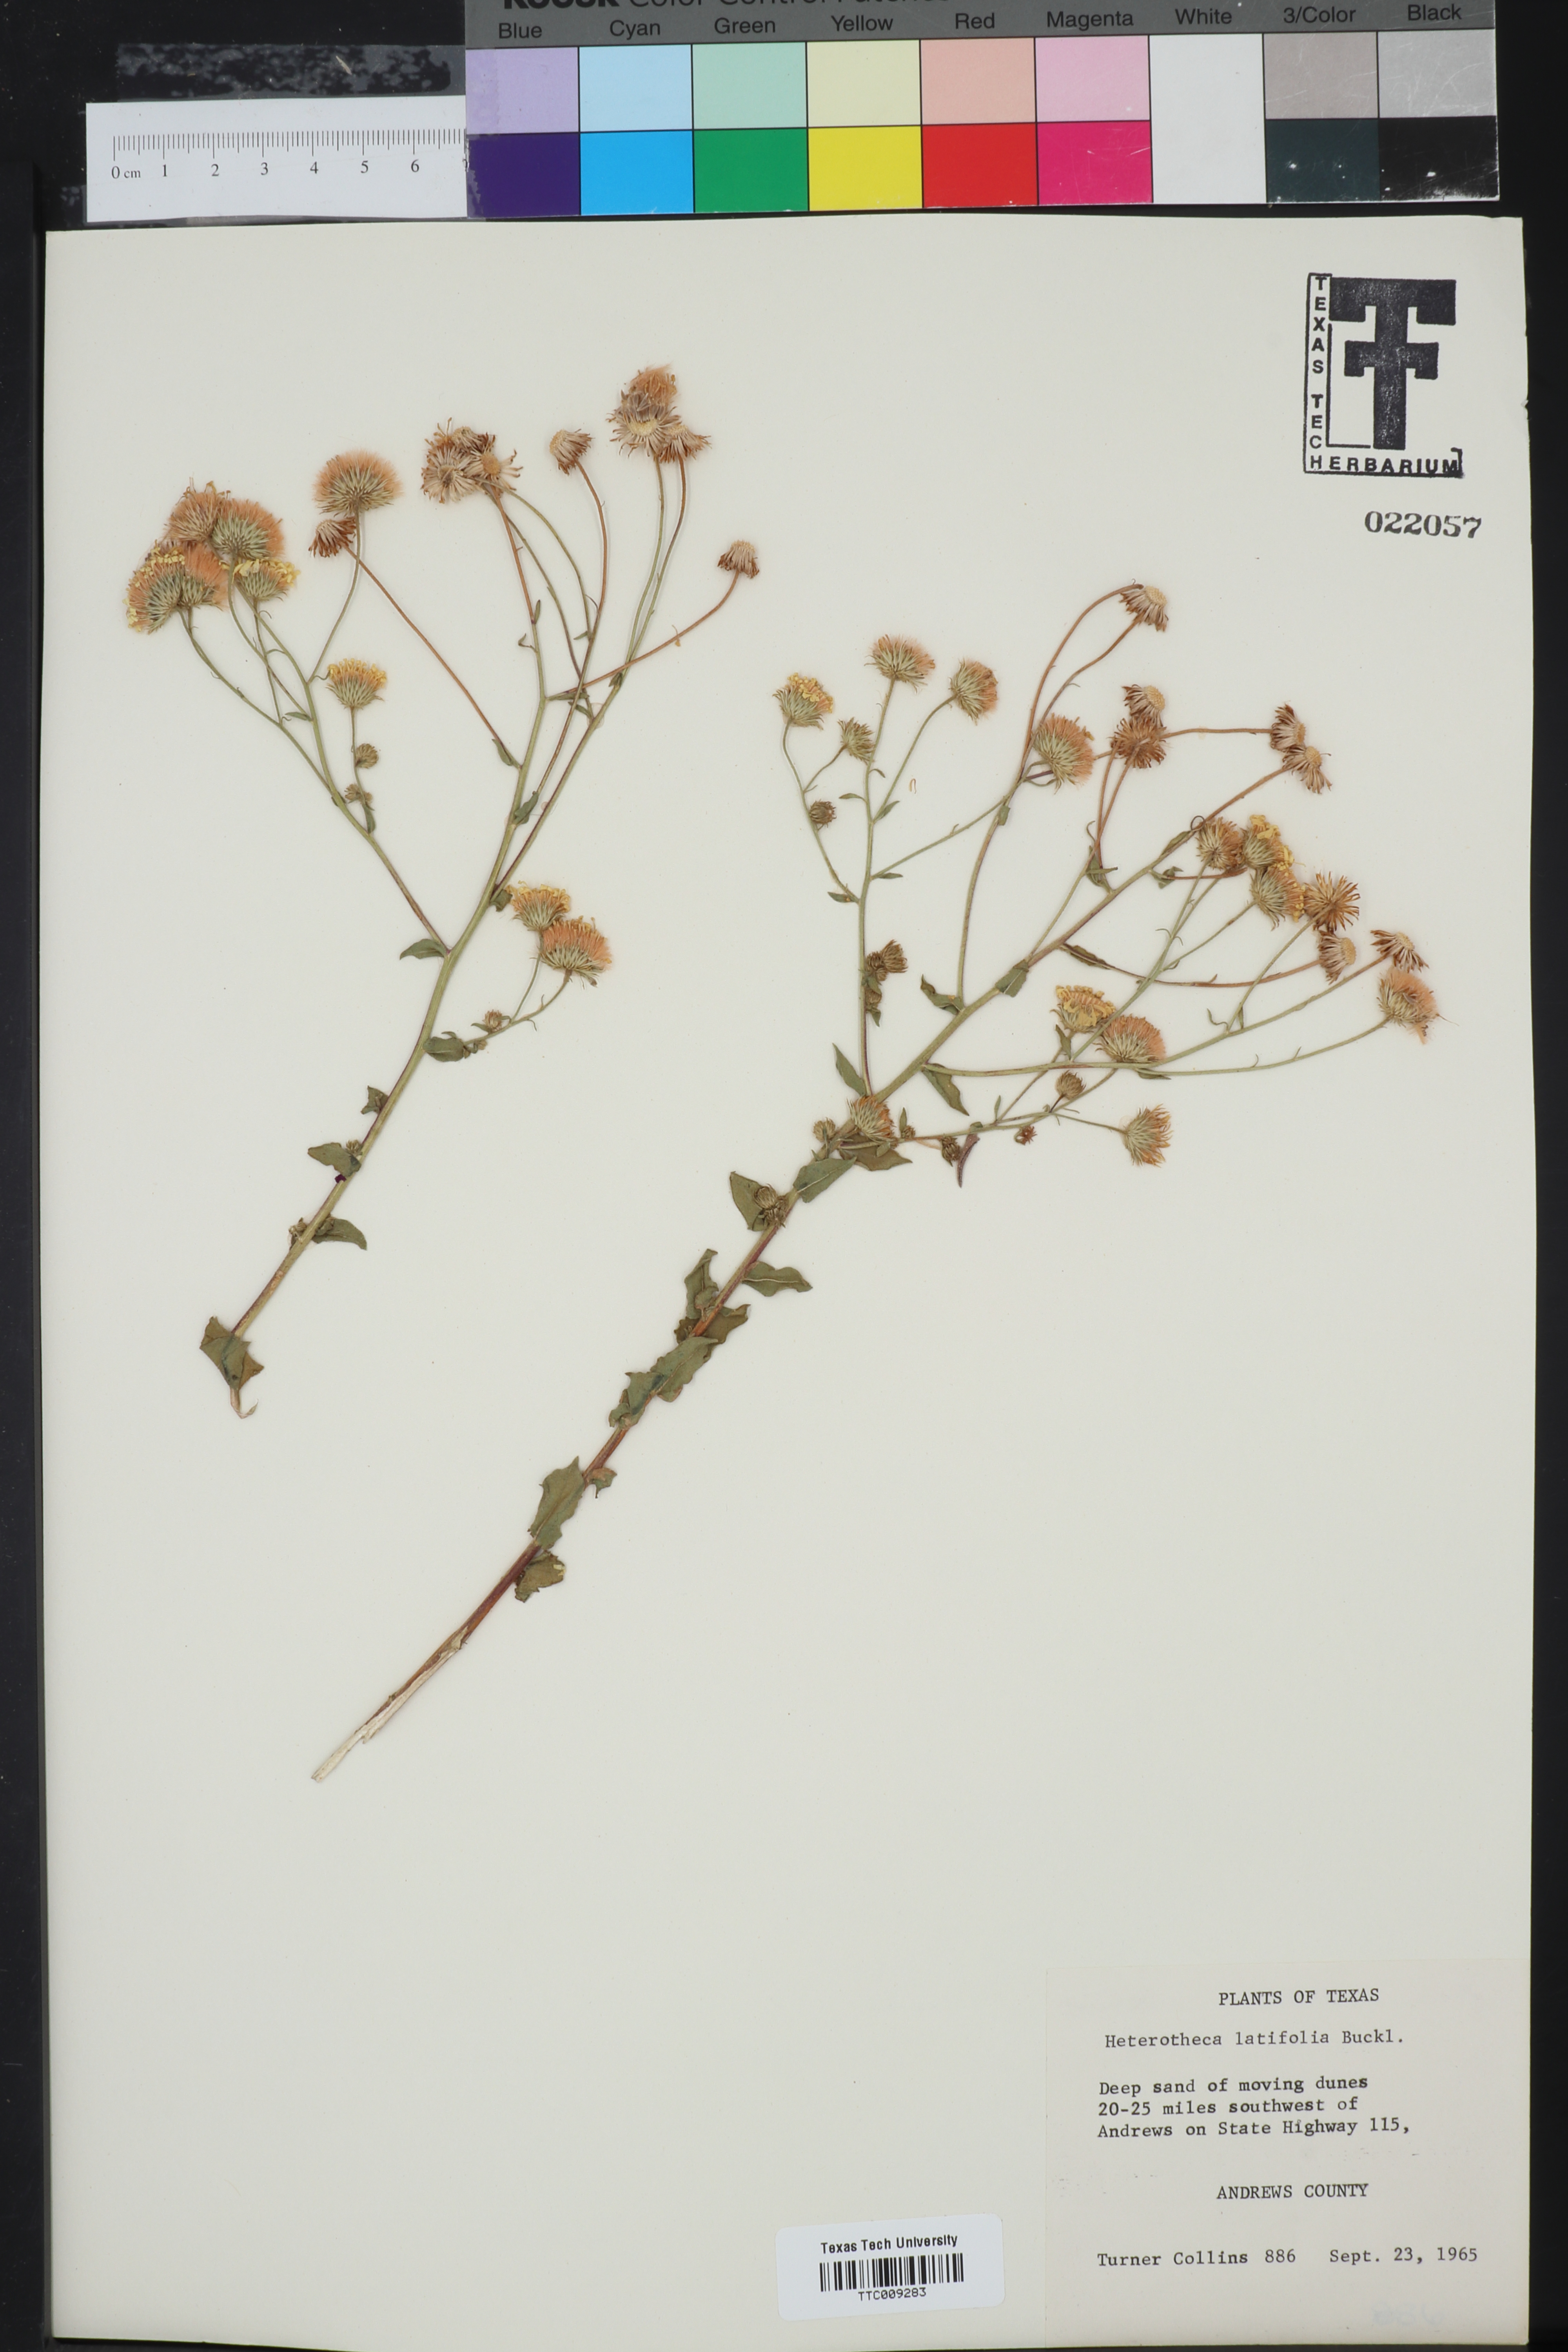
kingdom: Plantae
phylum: Tracheophyta
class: Magnoliopsida
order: Asterales
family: Asteraceae
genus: Heterotheca
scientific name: Heterotheca subaxillaris
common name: Camphorweed
